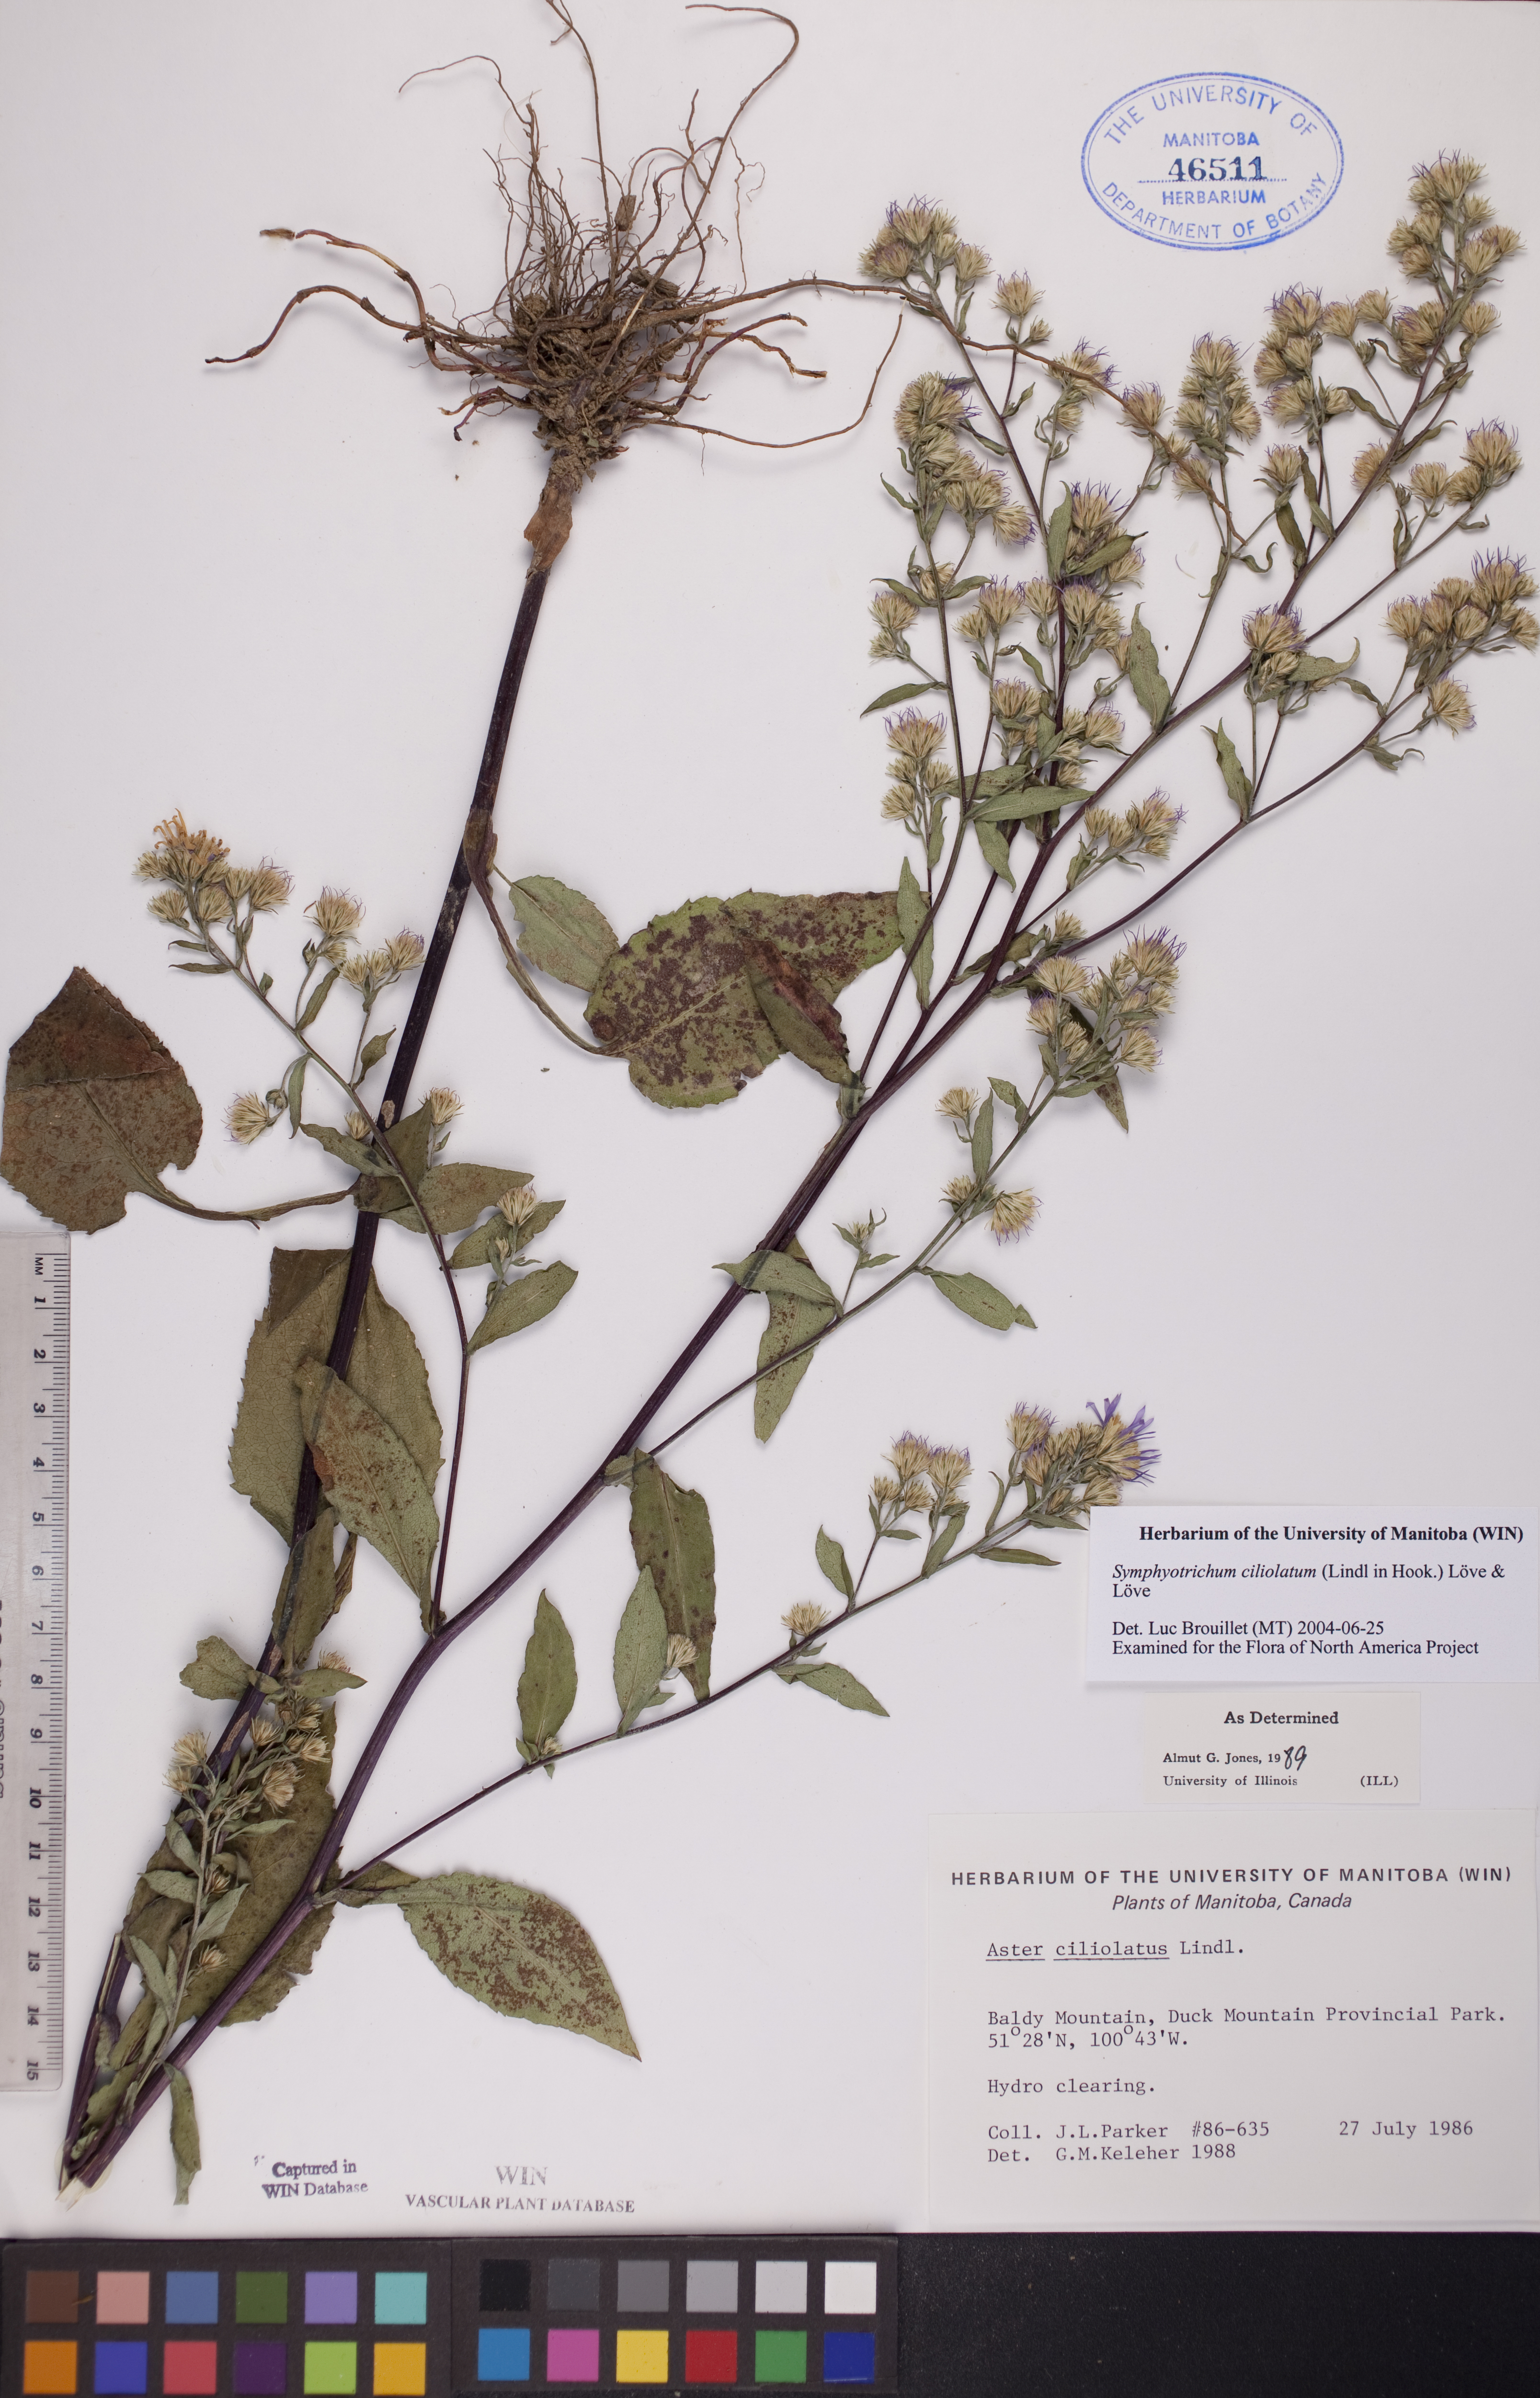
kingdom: Plantae
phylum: Tracheophyta
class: Magnoliopsida
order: Asterales
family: Asteraceae
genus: Symphyotrichum
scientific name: Symphyotrichum ciliolatum
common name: Fringed blue aster
